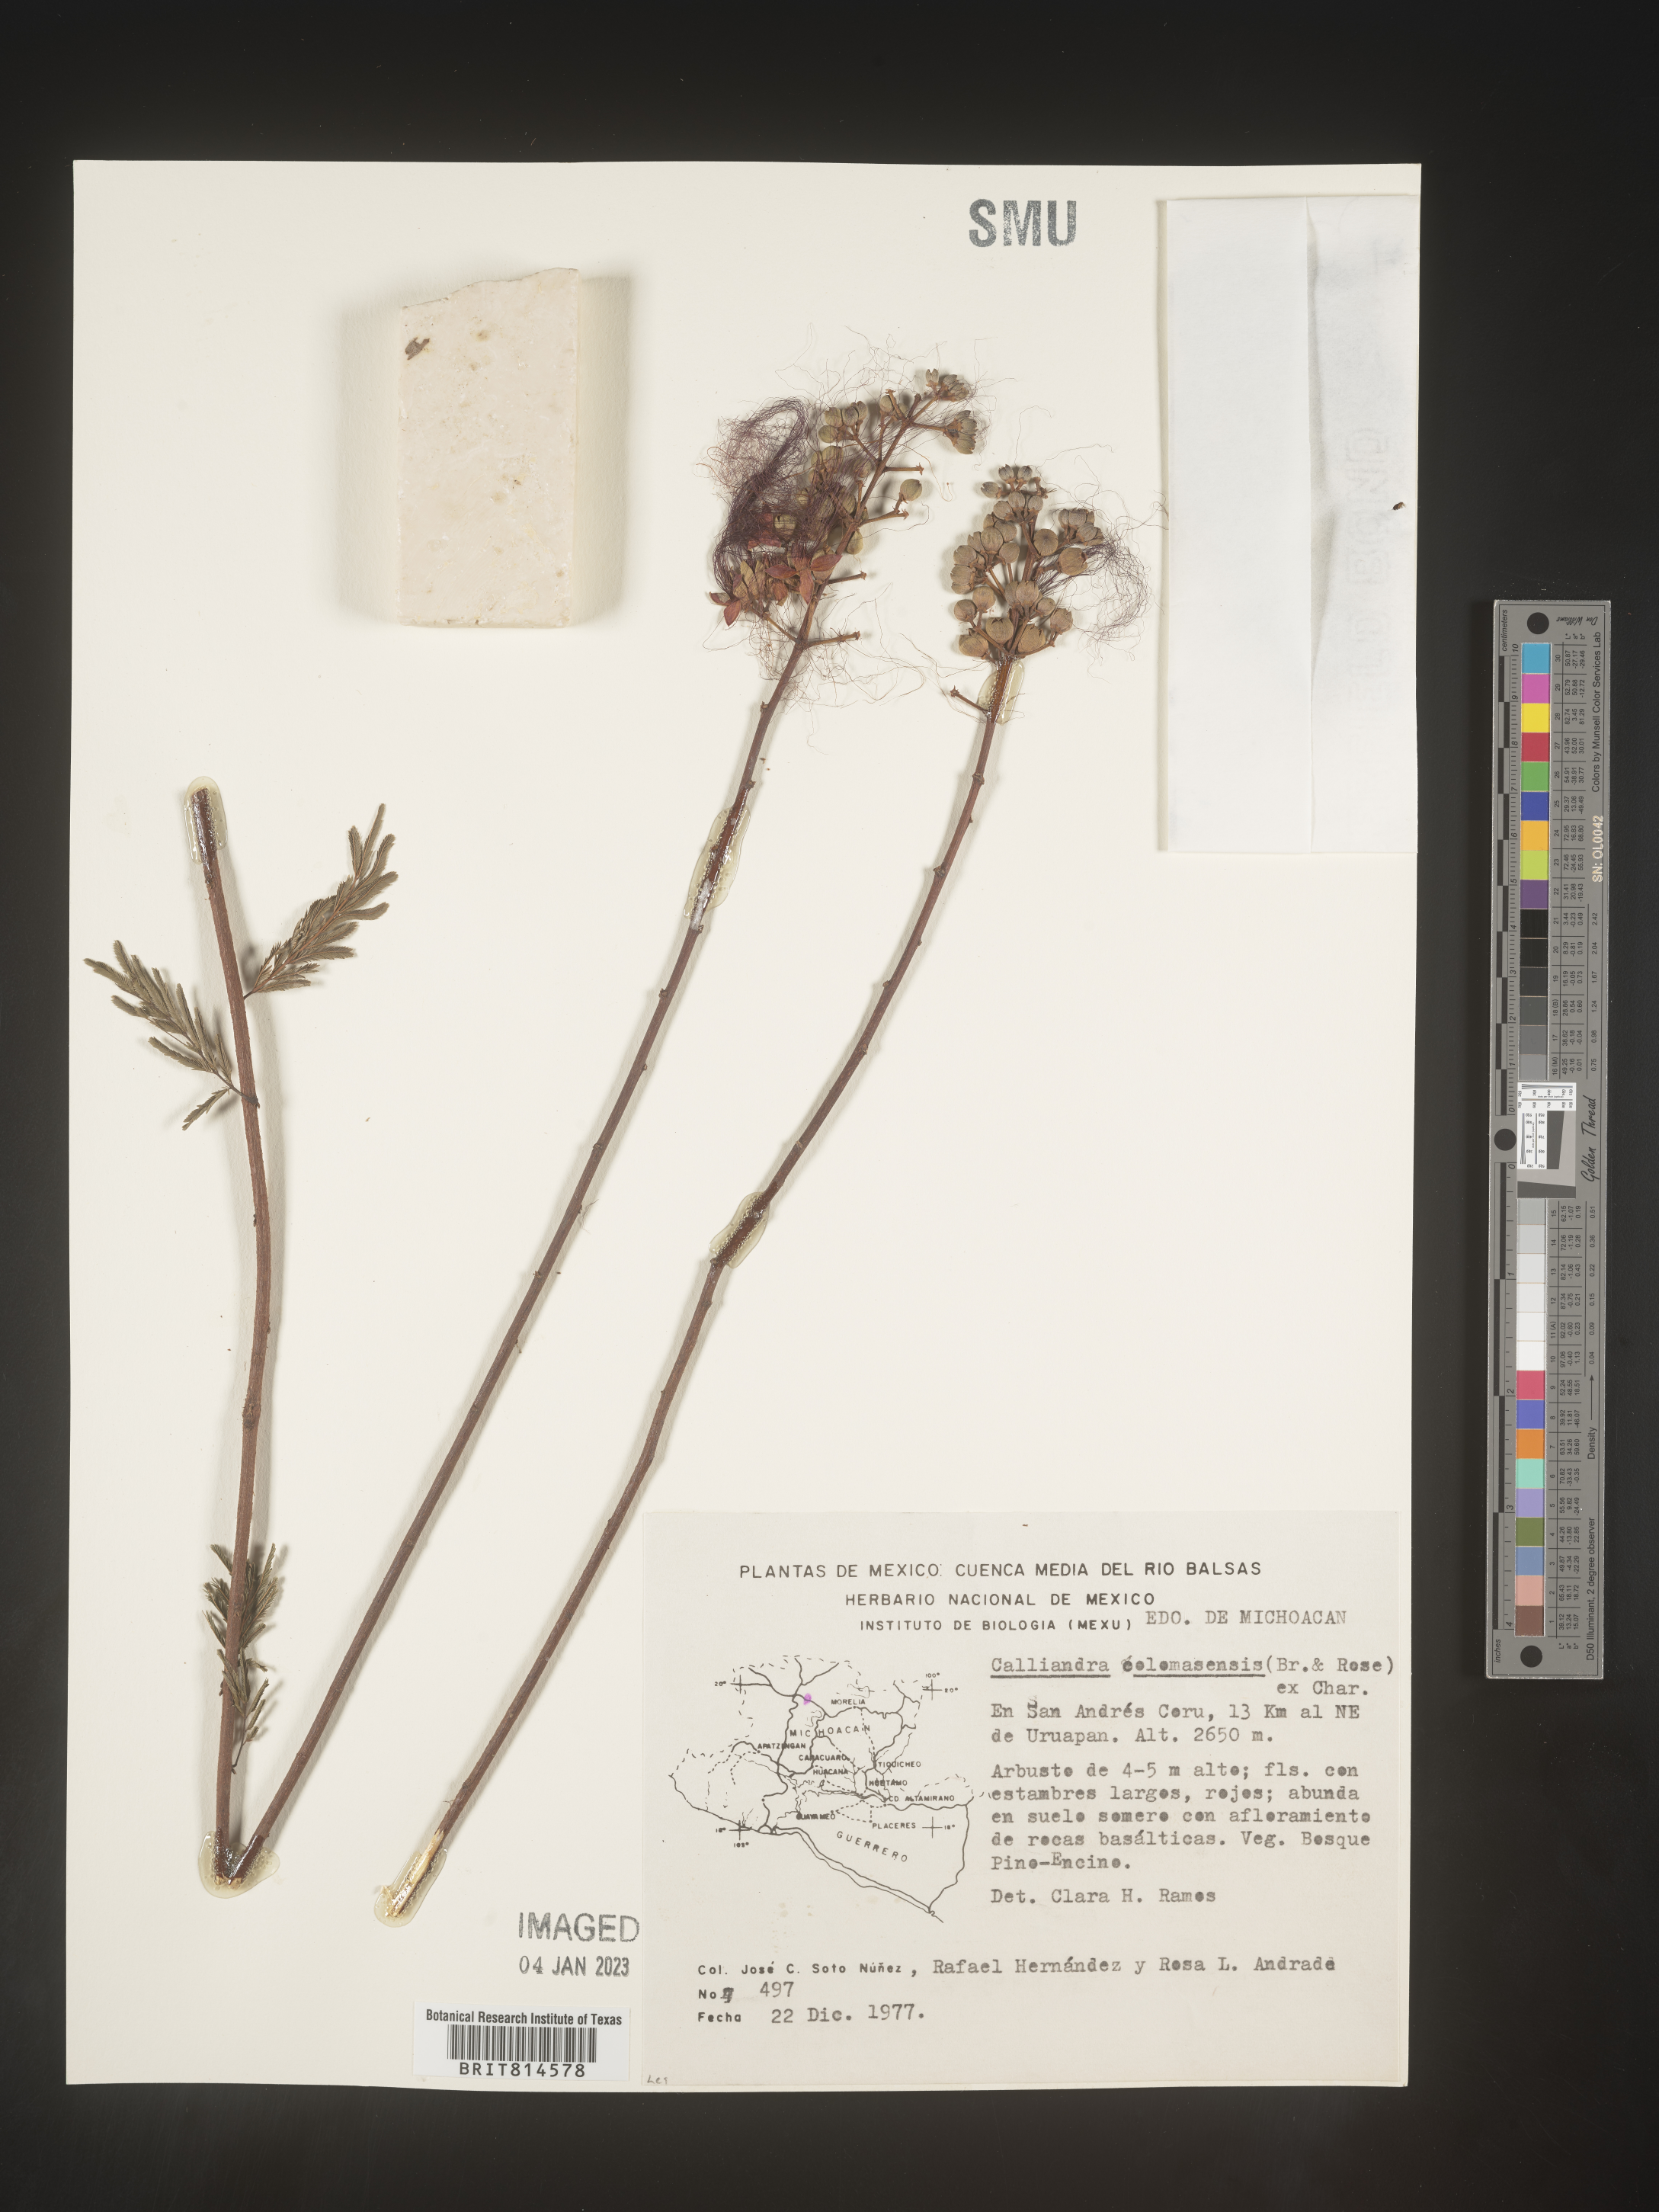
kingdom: Plantae
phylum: Tracheophyta
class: Magnoliopsida
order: Fabales
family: Fabaceae
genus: Calliandra
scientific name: Calliandra
